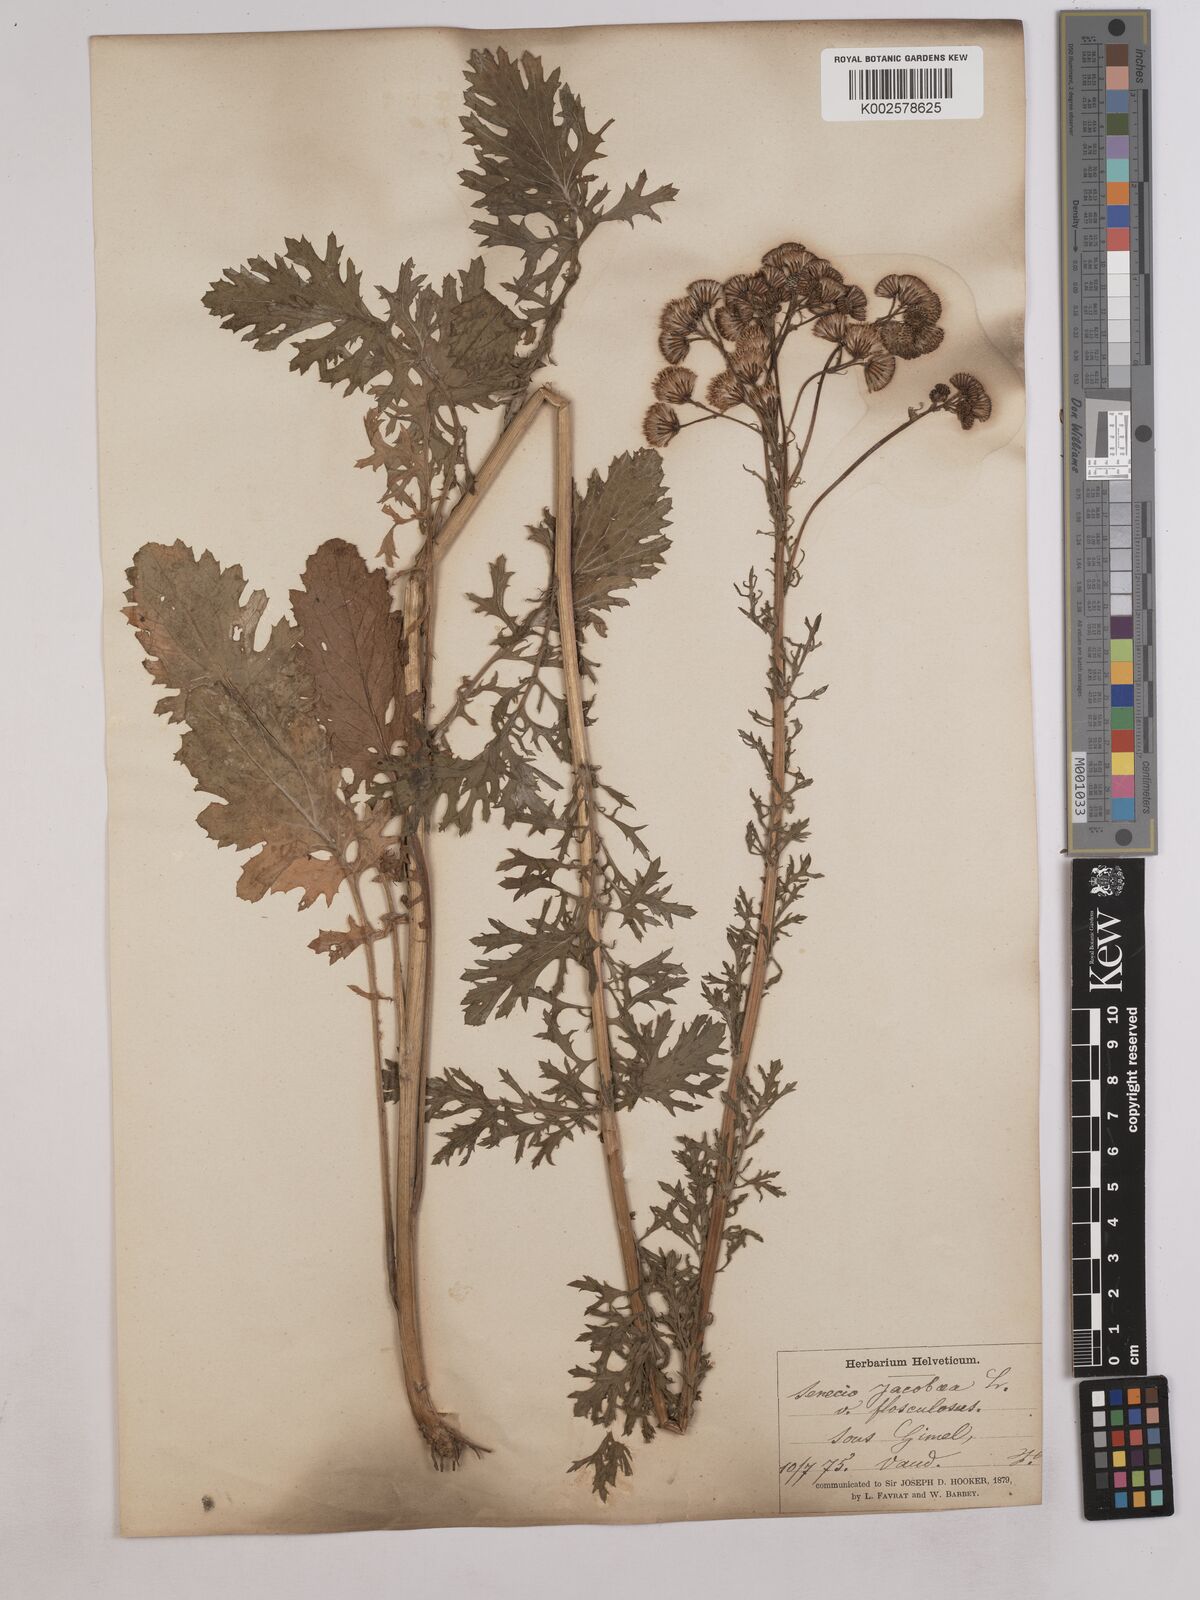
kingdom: Plantae
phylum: Tracheophyta
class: Magnoliopsida
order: Asterales
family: Asteraceae
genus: Jacobaea
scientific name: Jacobaea vulgaris
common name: Stinking willie
